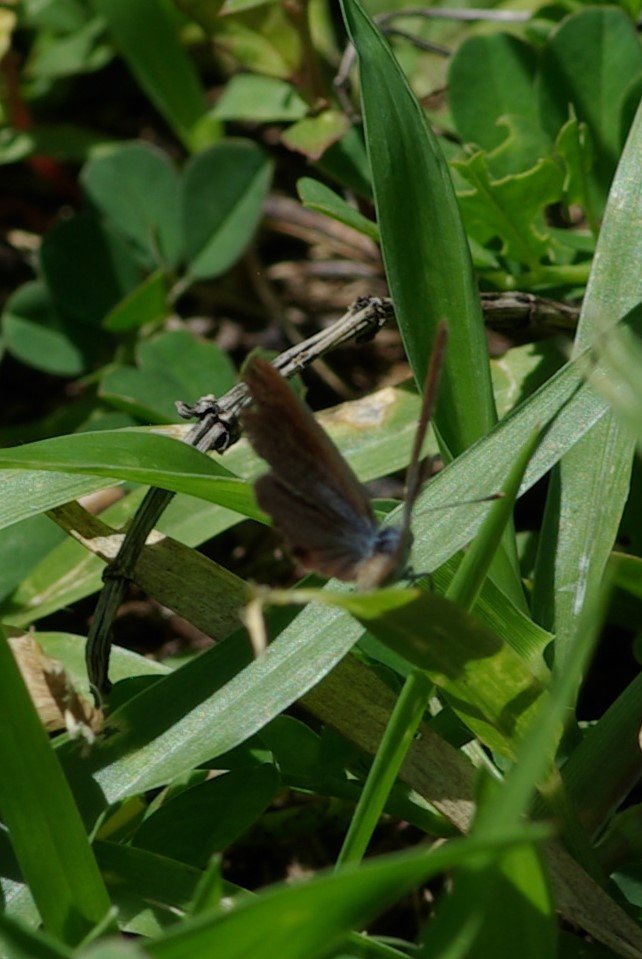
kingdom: Animalia
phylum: Arthropoda
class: Insecta
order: Lepidoptera
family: Lycaenidae
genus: Hemiargus
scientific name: Hemiargus ceraunus
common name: Ceraunus Blue
